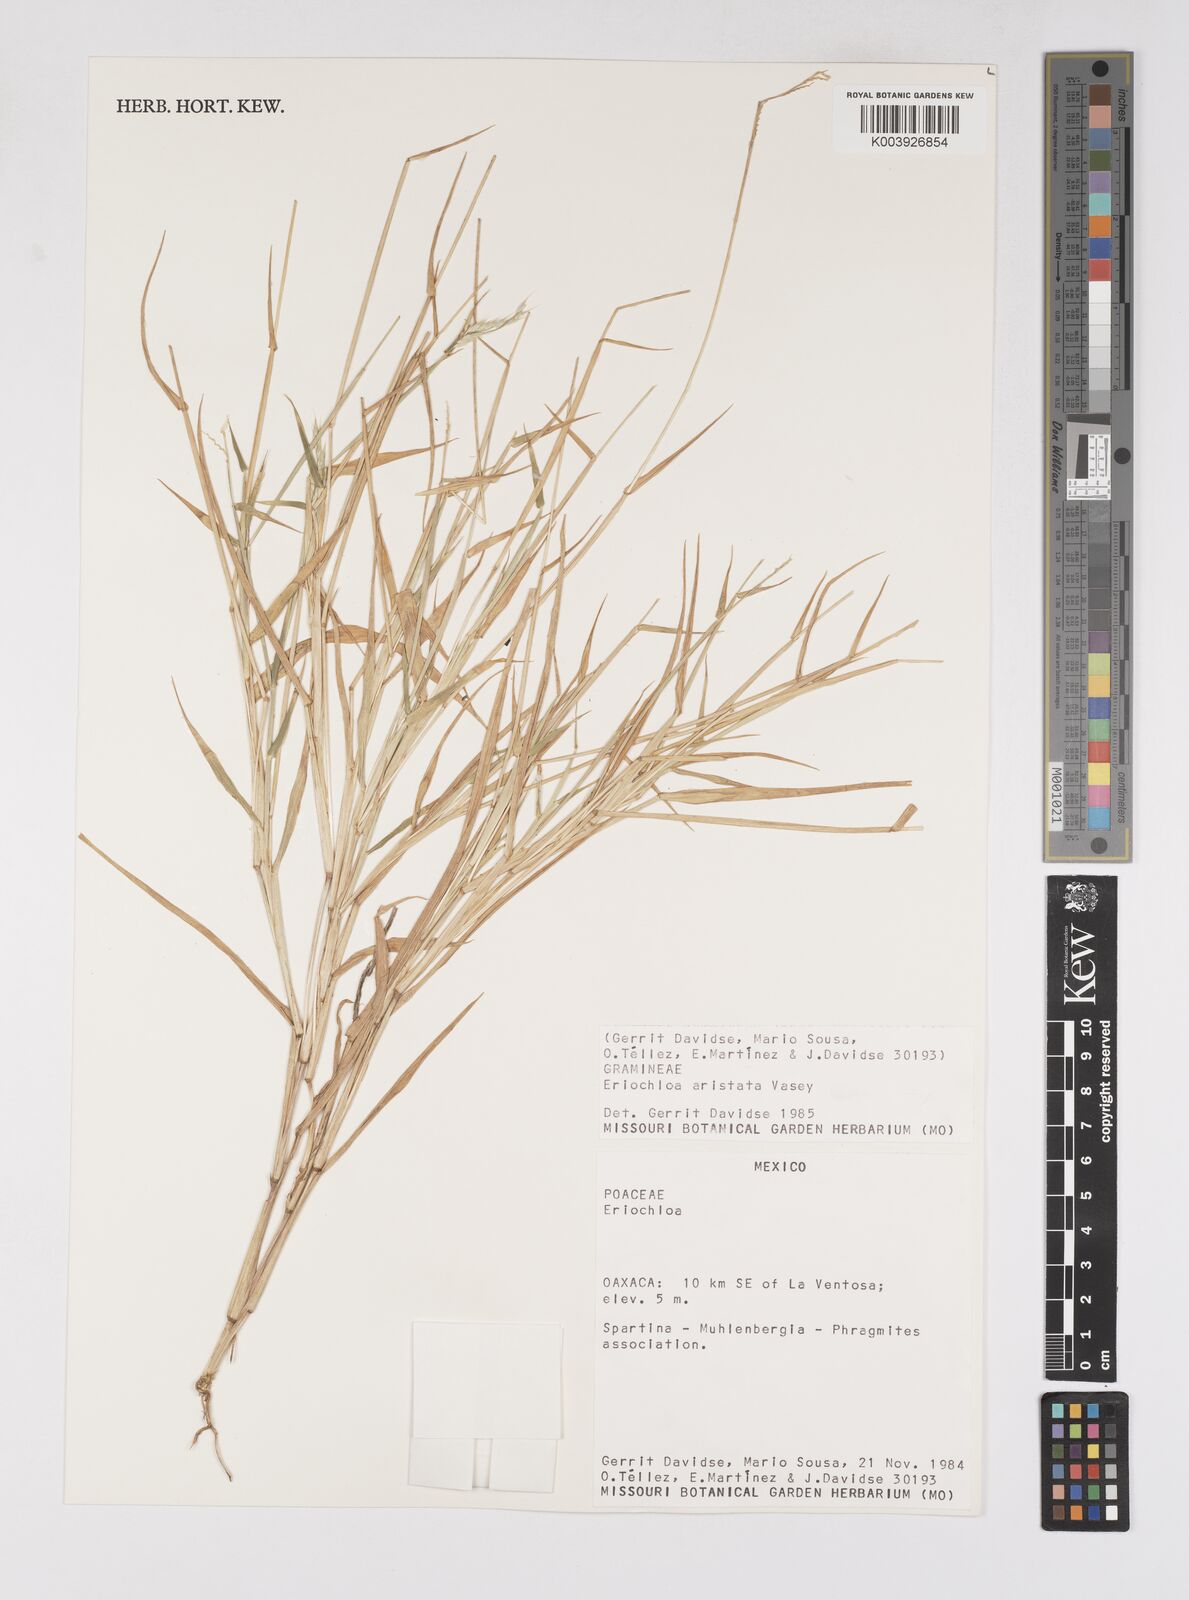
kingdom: Plantae
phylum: Tracheophyta
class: Liliopsida
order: Poales
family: Poaceae
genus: Eriochloa
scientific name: Eriochloa aristata
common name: Bearded cup grass
